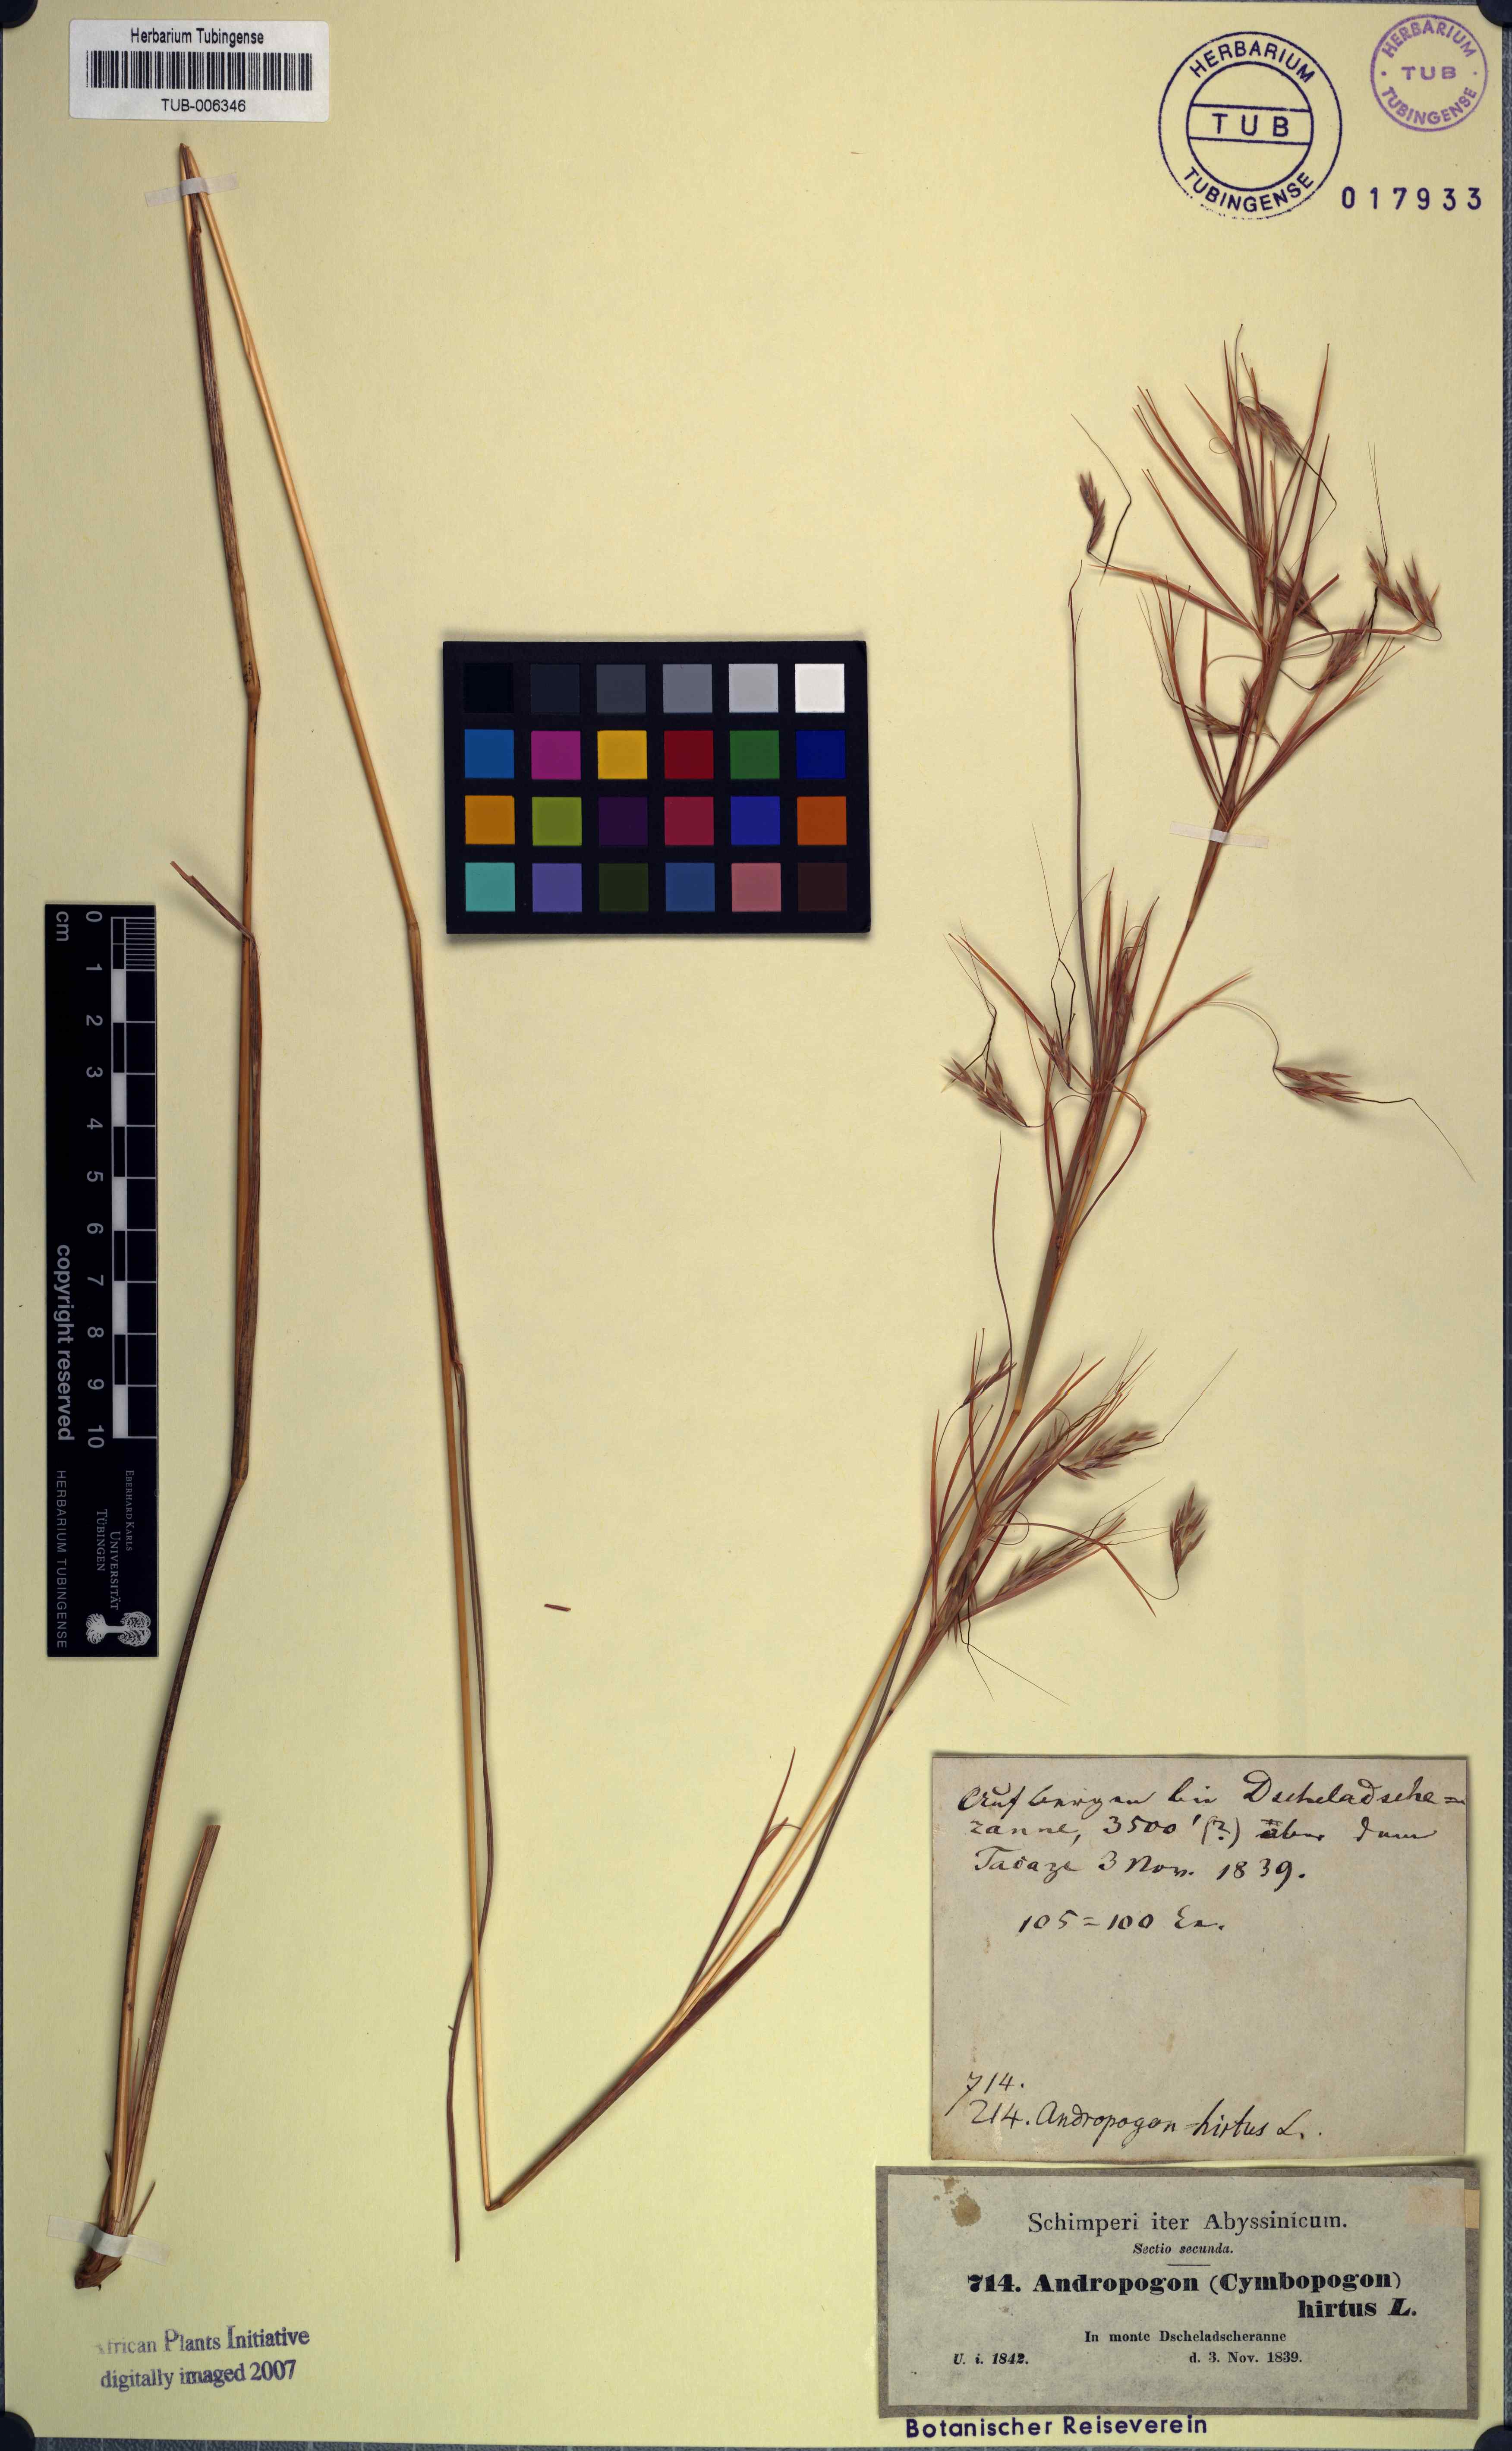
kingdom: Plantae
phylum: Tracheophyta
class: Liliopsida
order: Poales
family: Poaceae
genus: Hyparrhenia
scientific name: Hyparrhenia hirta
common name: Thatching grass
